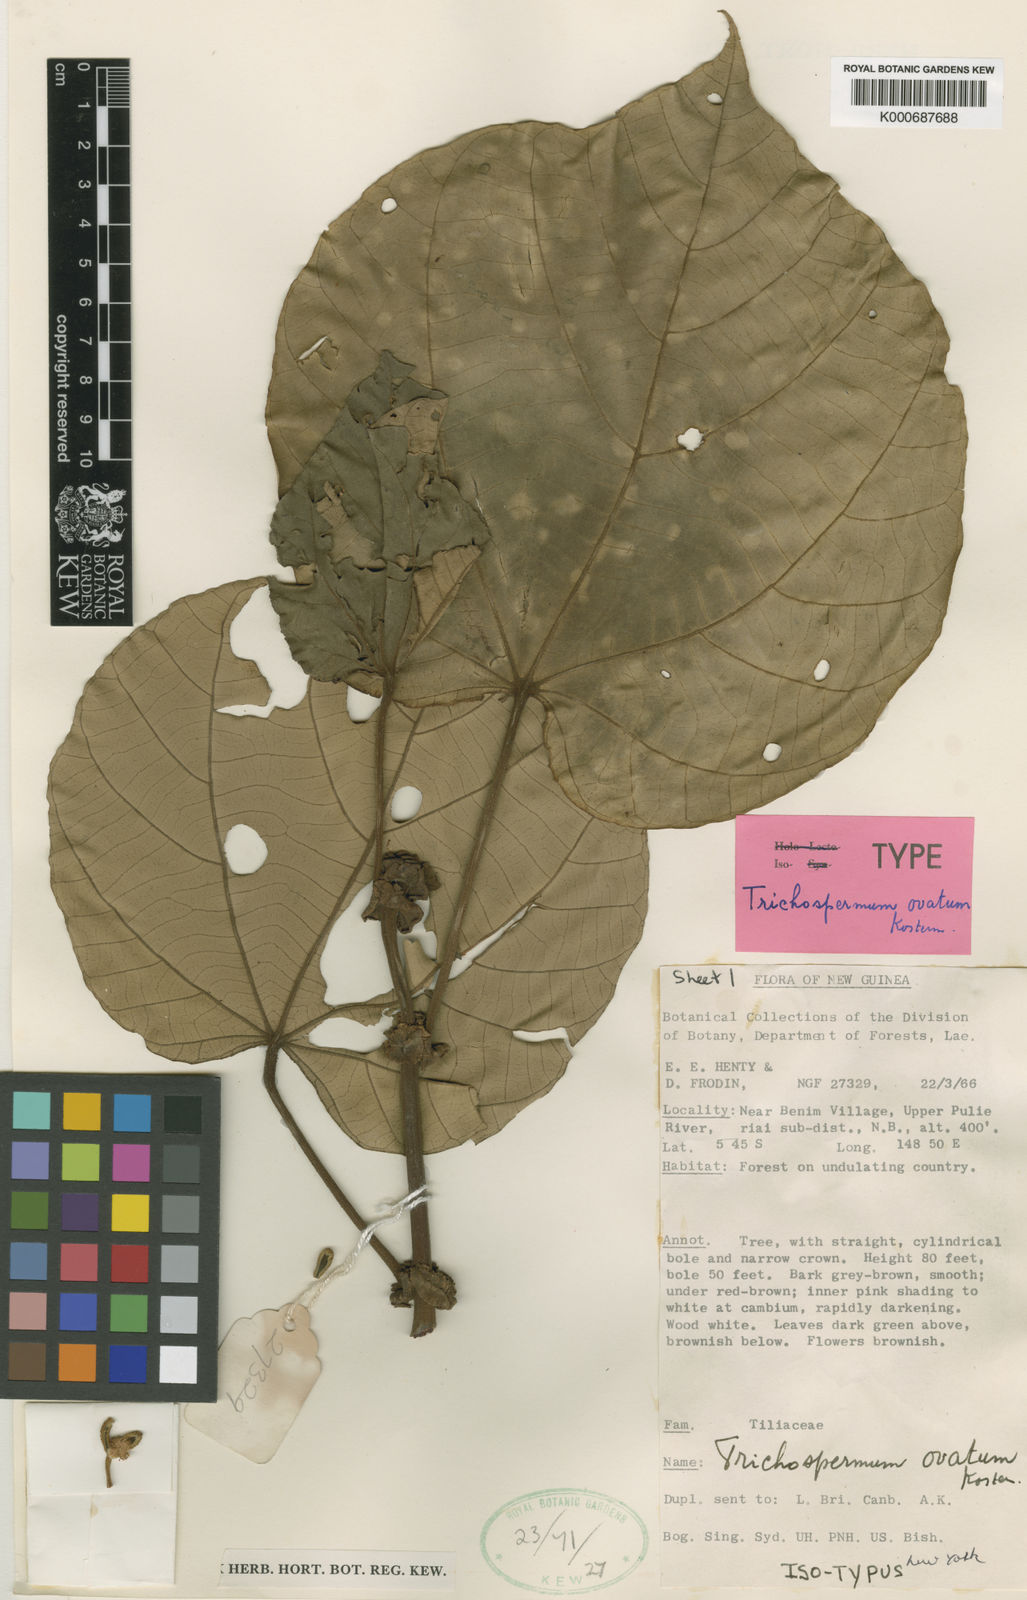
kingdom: Plantae
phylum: Tracheophyta
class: Magnoliopsida
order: Malvales
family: Malvaceae
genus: Trichospermum
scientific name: Trichospermum ovatum
